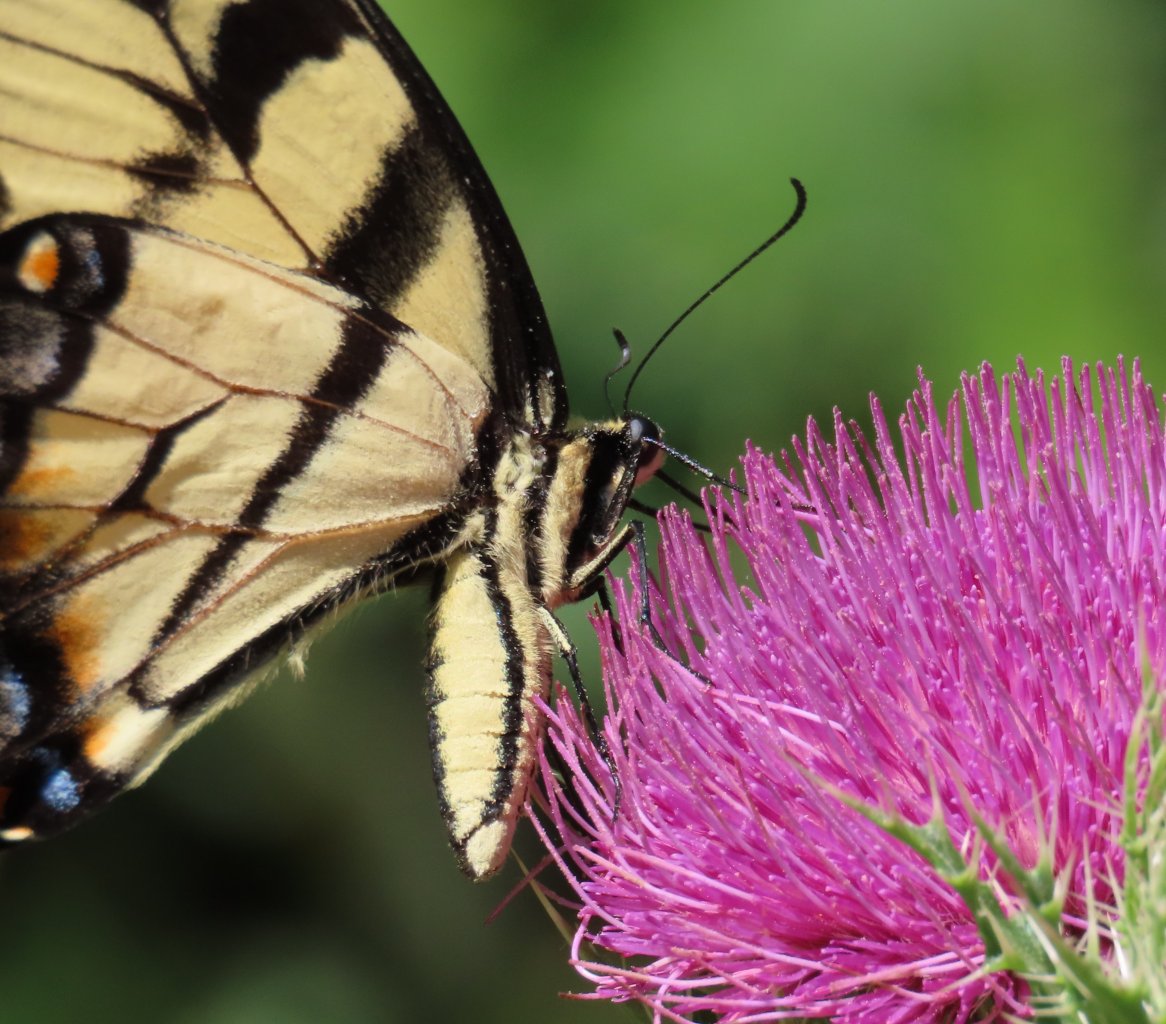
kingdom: Animalia
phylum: Arthropoda
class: Insecta
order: Lepidoptera
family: Papilionidae
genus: Pterourus
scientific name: Pterourus glaucus
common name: Eastern Tiger Swallowtail
